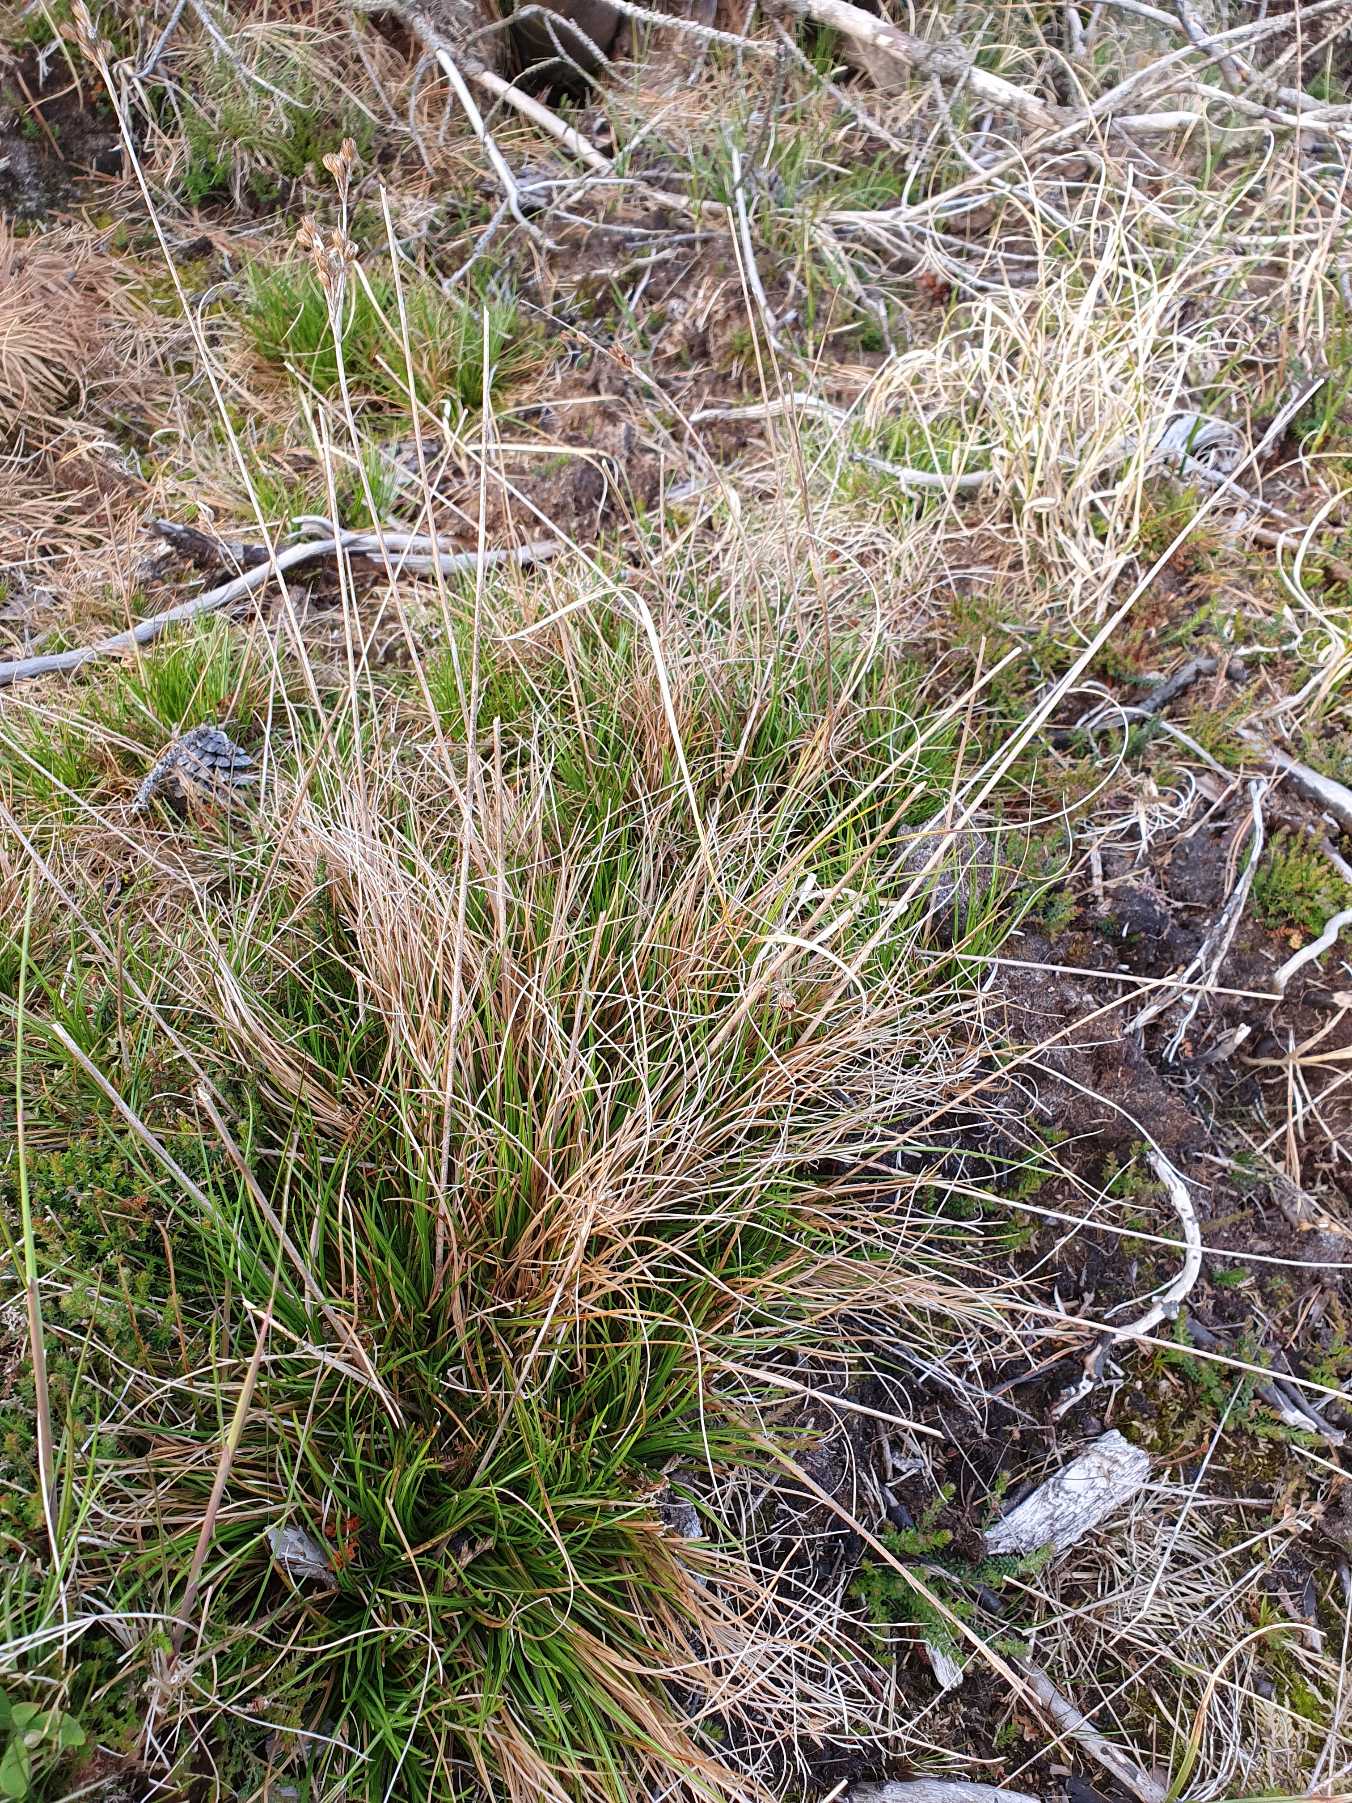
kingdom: Plantae
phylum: Tracheophyta
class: Liliopsida
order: Poales
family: Juncaceae
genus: Juncus
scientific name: Juncus squarrosus
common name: Børste-siv
